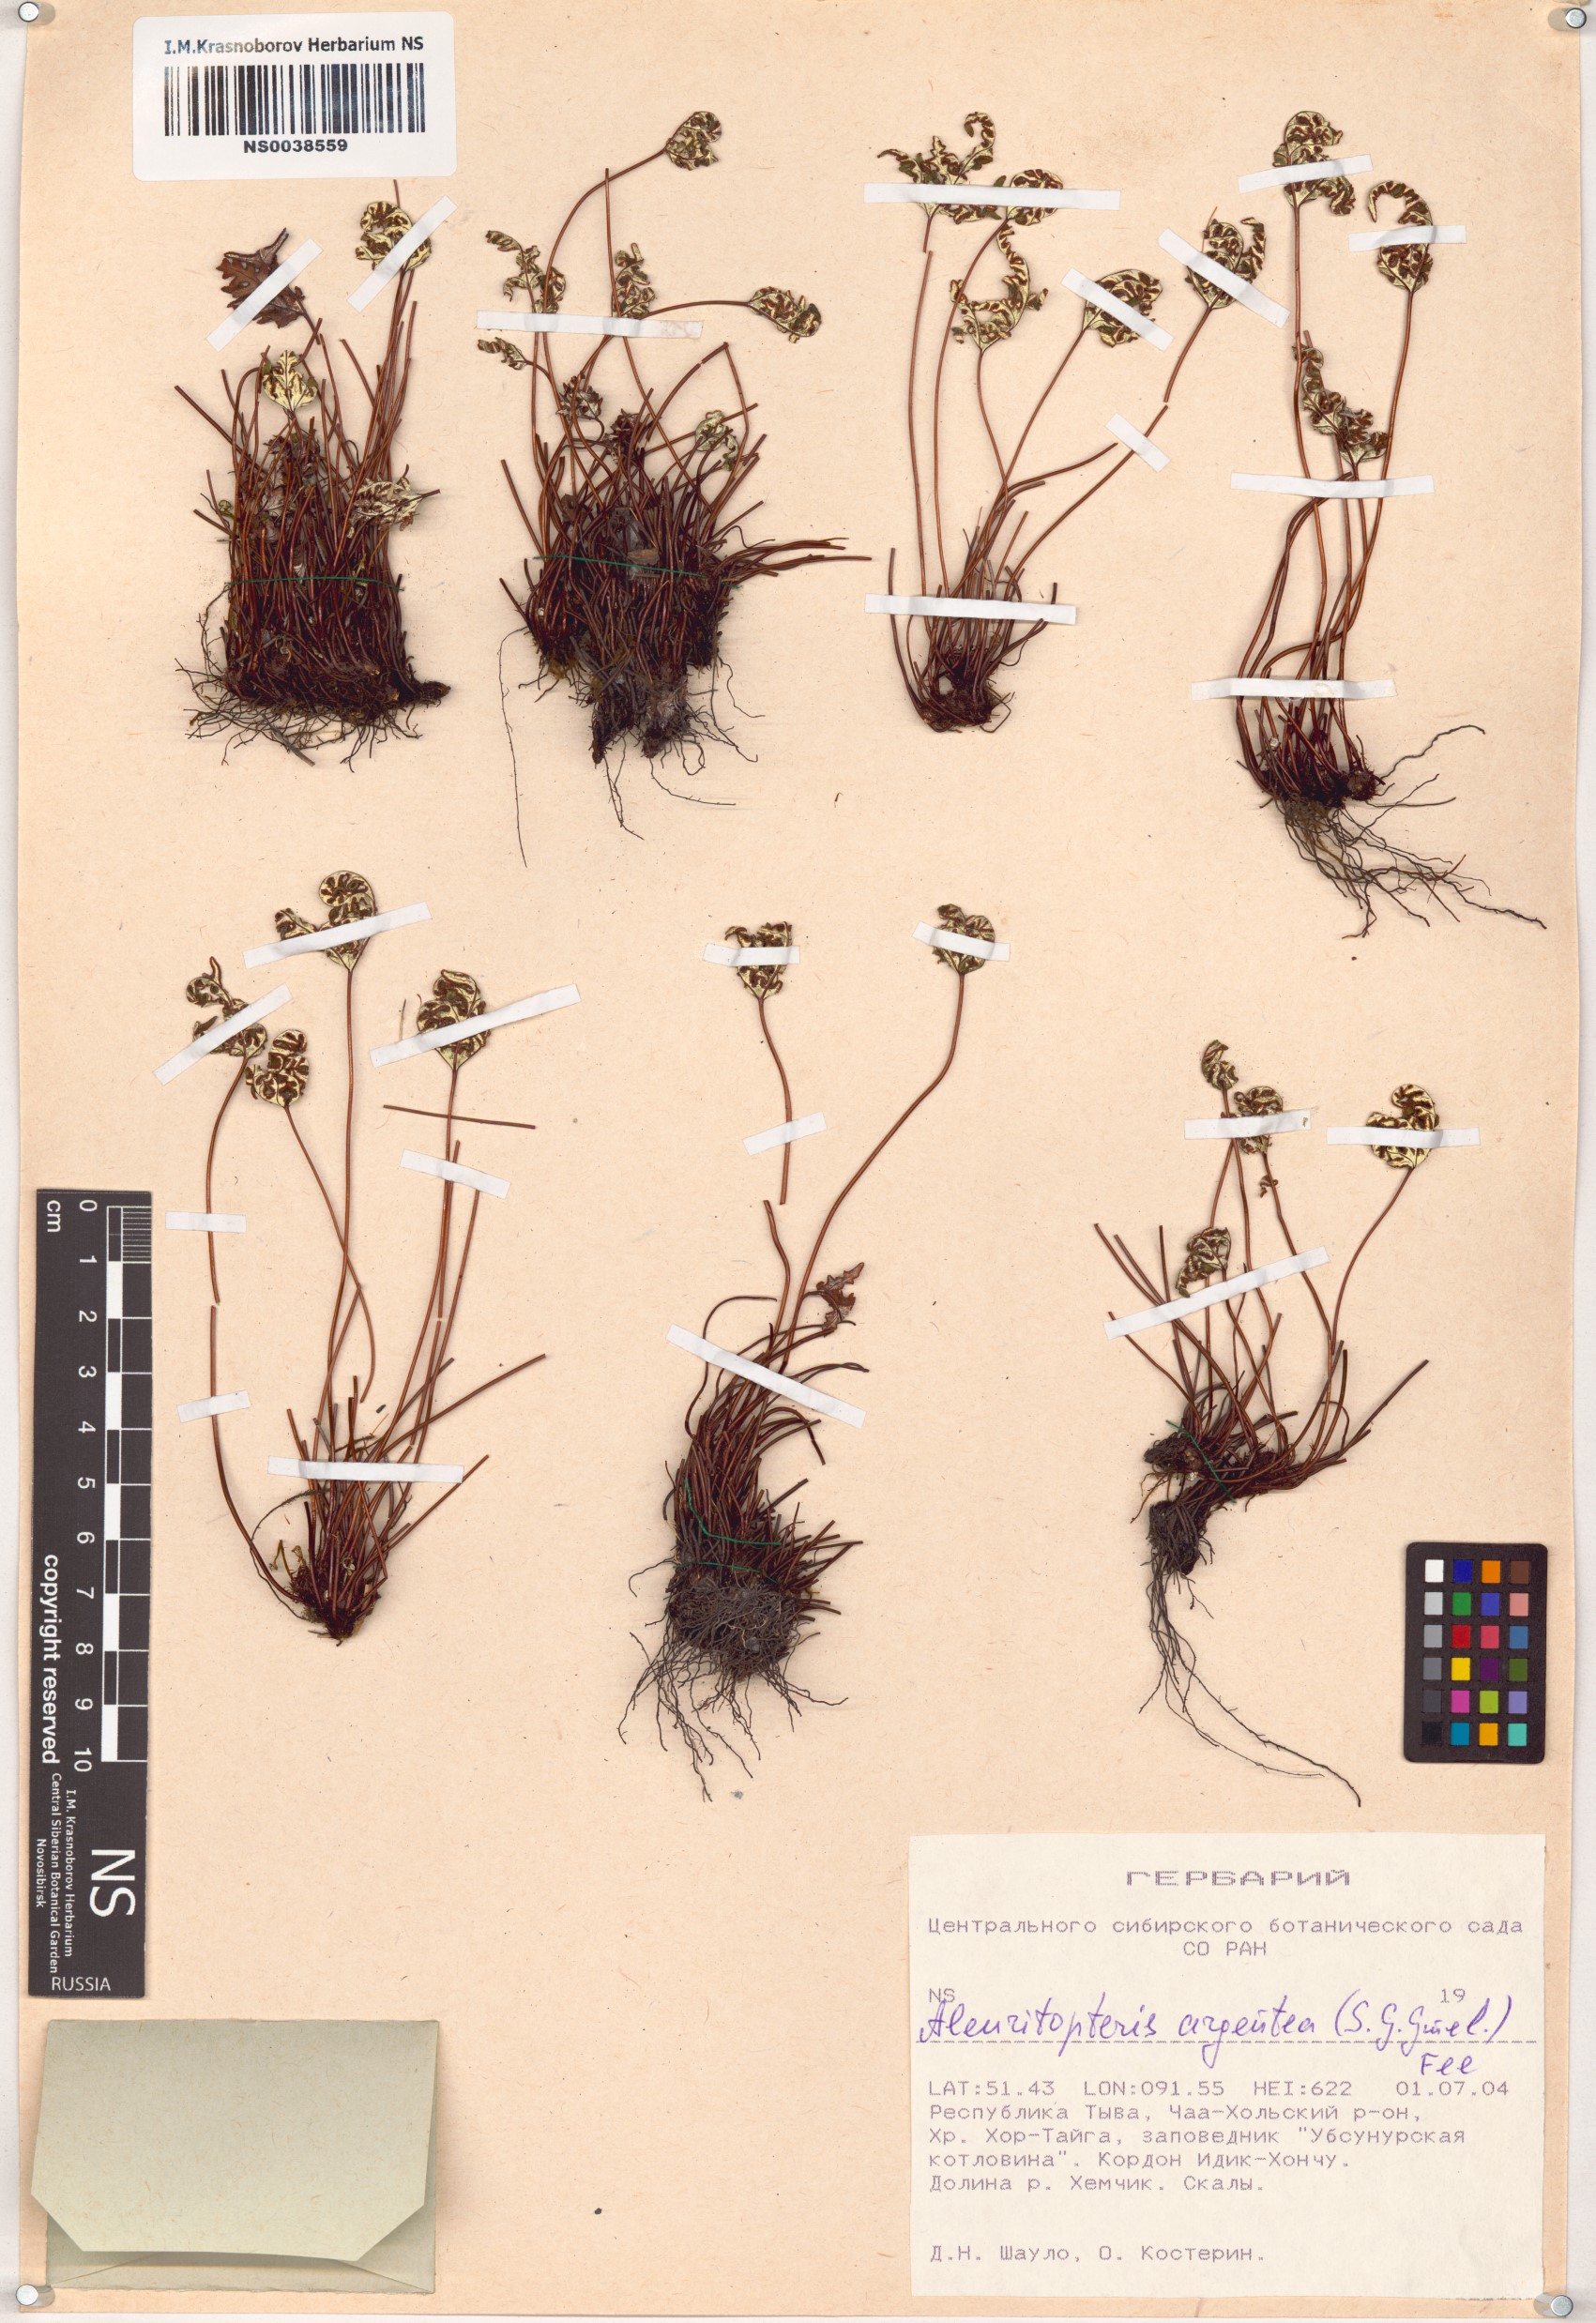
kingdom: Plantae
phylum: Tracheophyta
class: Polypodiopsida
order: Polypodiales
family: Pteridaceae
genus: Aleuritopteris
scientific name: Aleuritopteris argentea
